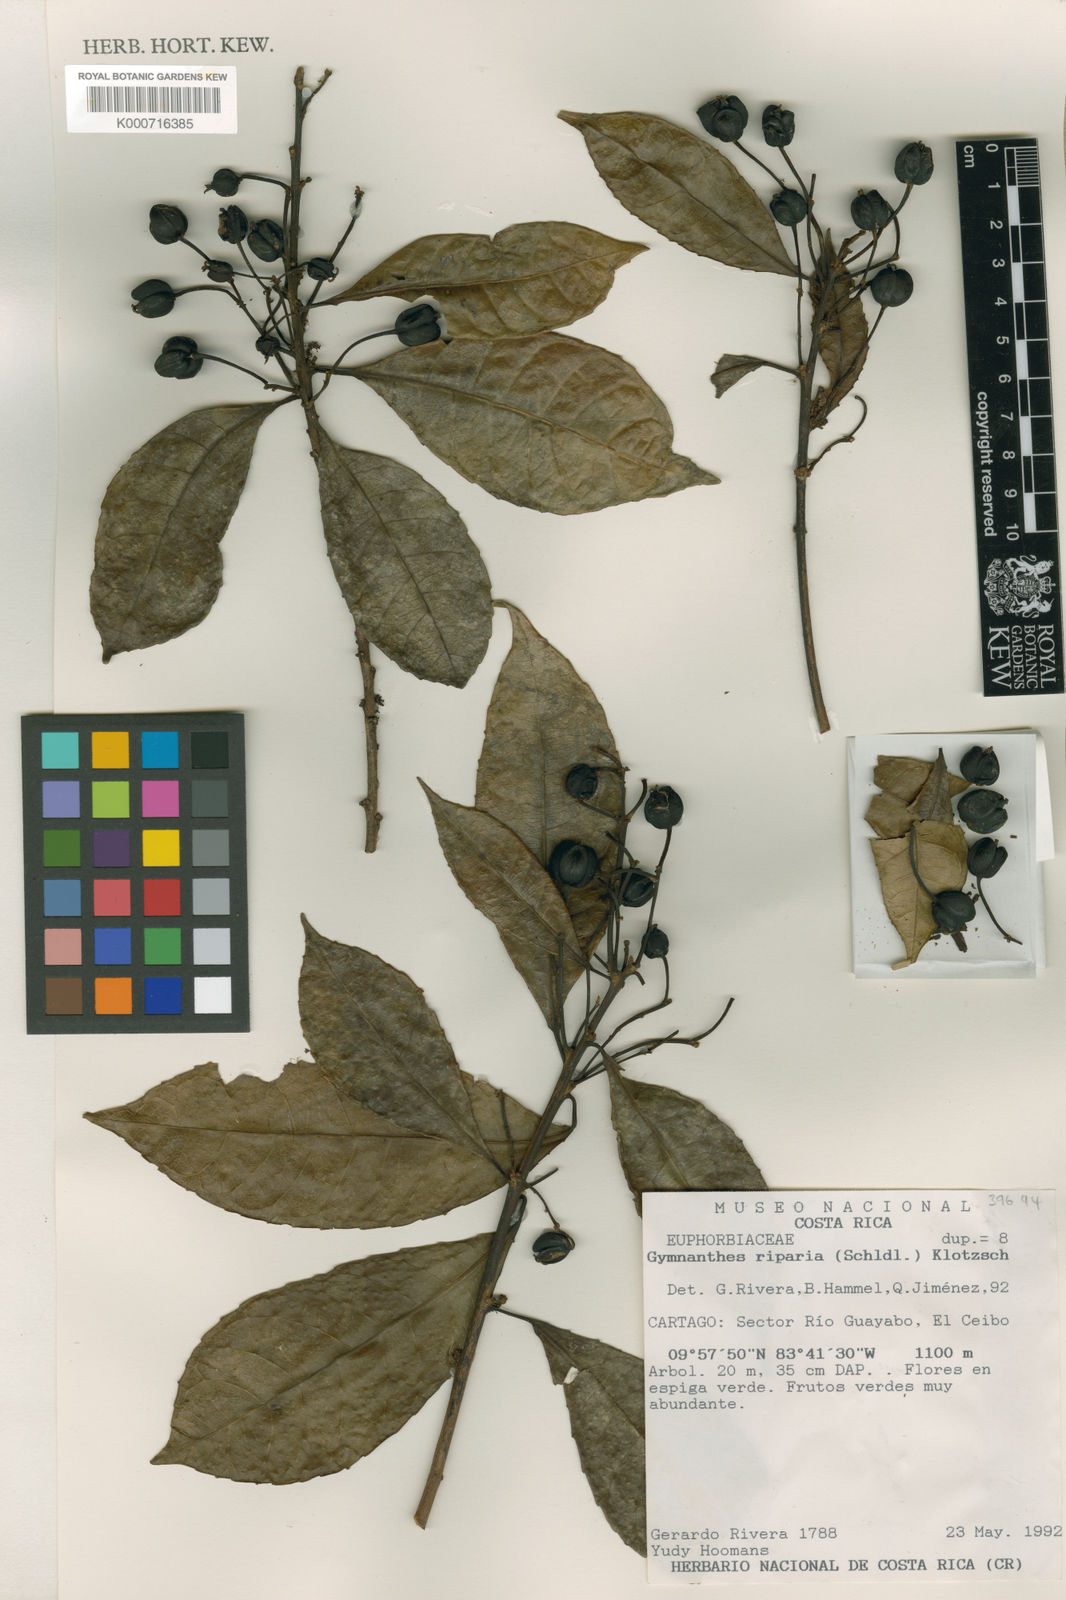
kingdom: Plantae
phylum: Tracheophyta
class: Magnoliopsida
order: Malpighiales
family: Euphorbiaceae
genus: Gymnanthes
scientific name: Gymnanthes riparia
